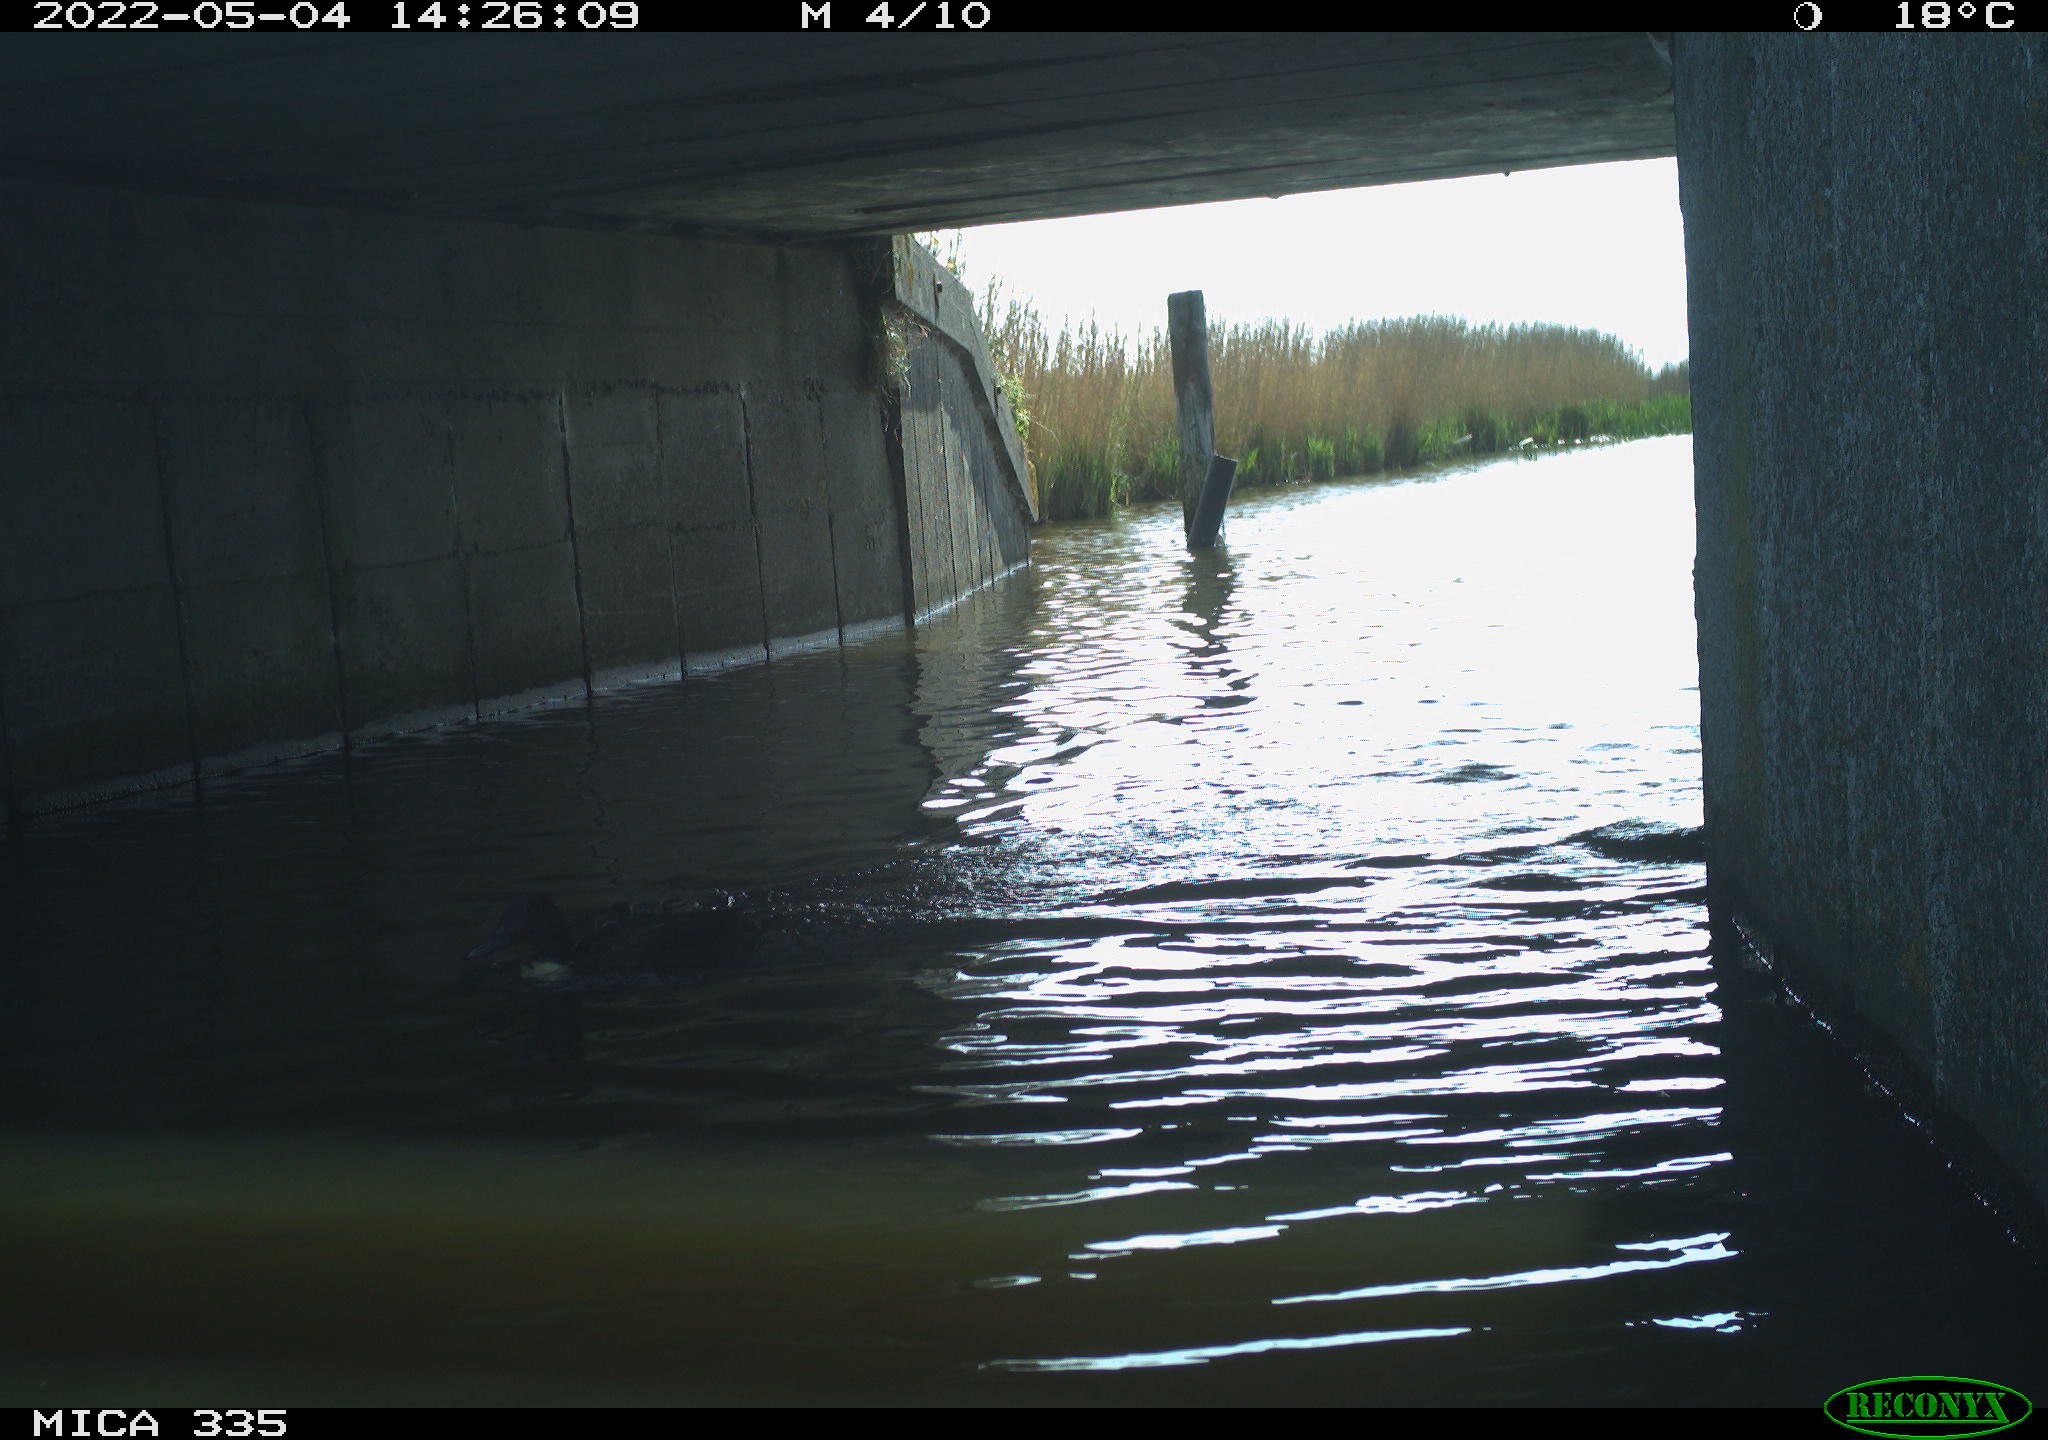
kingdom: Animalia
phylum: Chordata
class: Aves
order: Anseriformes
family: Anatidae
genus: Anas
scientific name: Anas platyrhynchos
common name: Mallard
